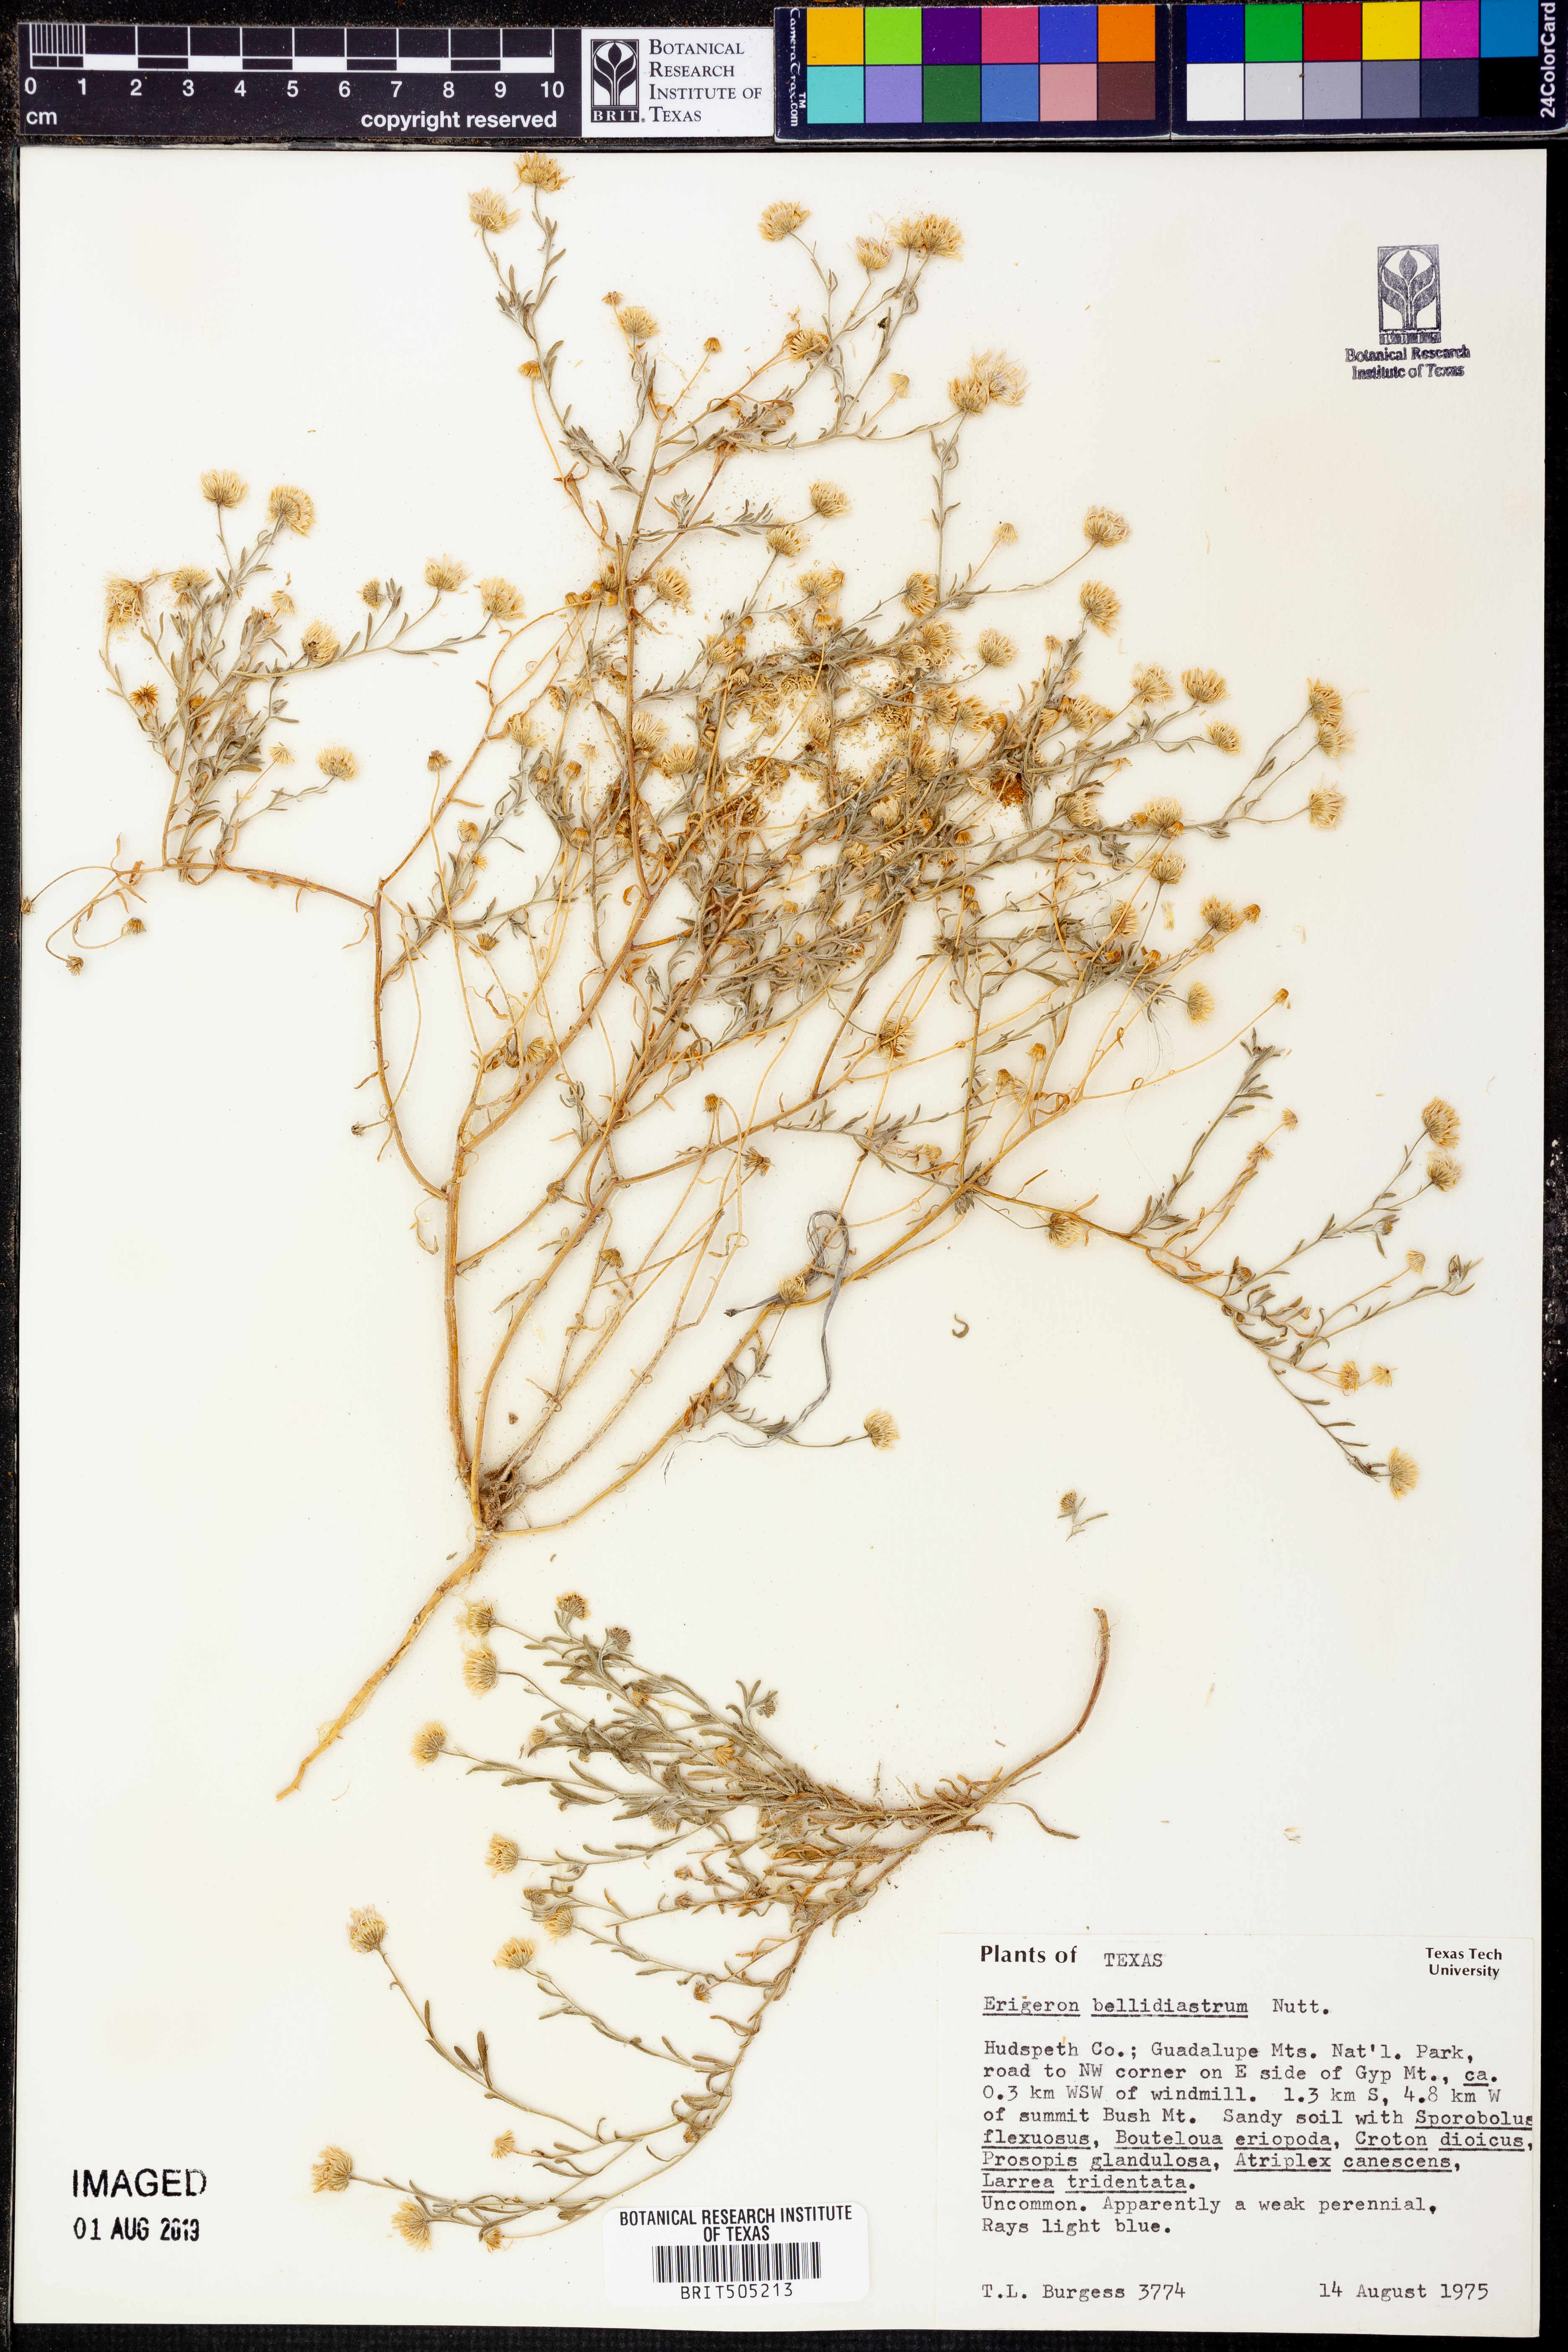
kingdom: Plantae
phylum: Tracheophyta
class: Magnoliopsida
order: Asterales
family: Asteraceae
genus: Erigeron
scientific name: Erigeron bellidiastrum
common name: Sand fleabane
